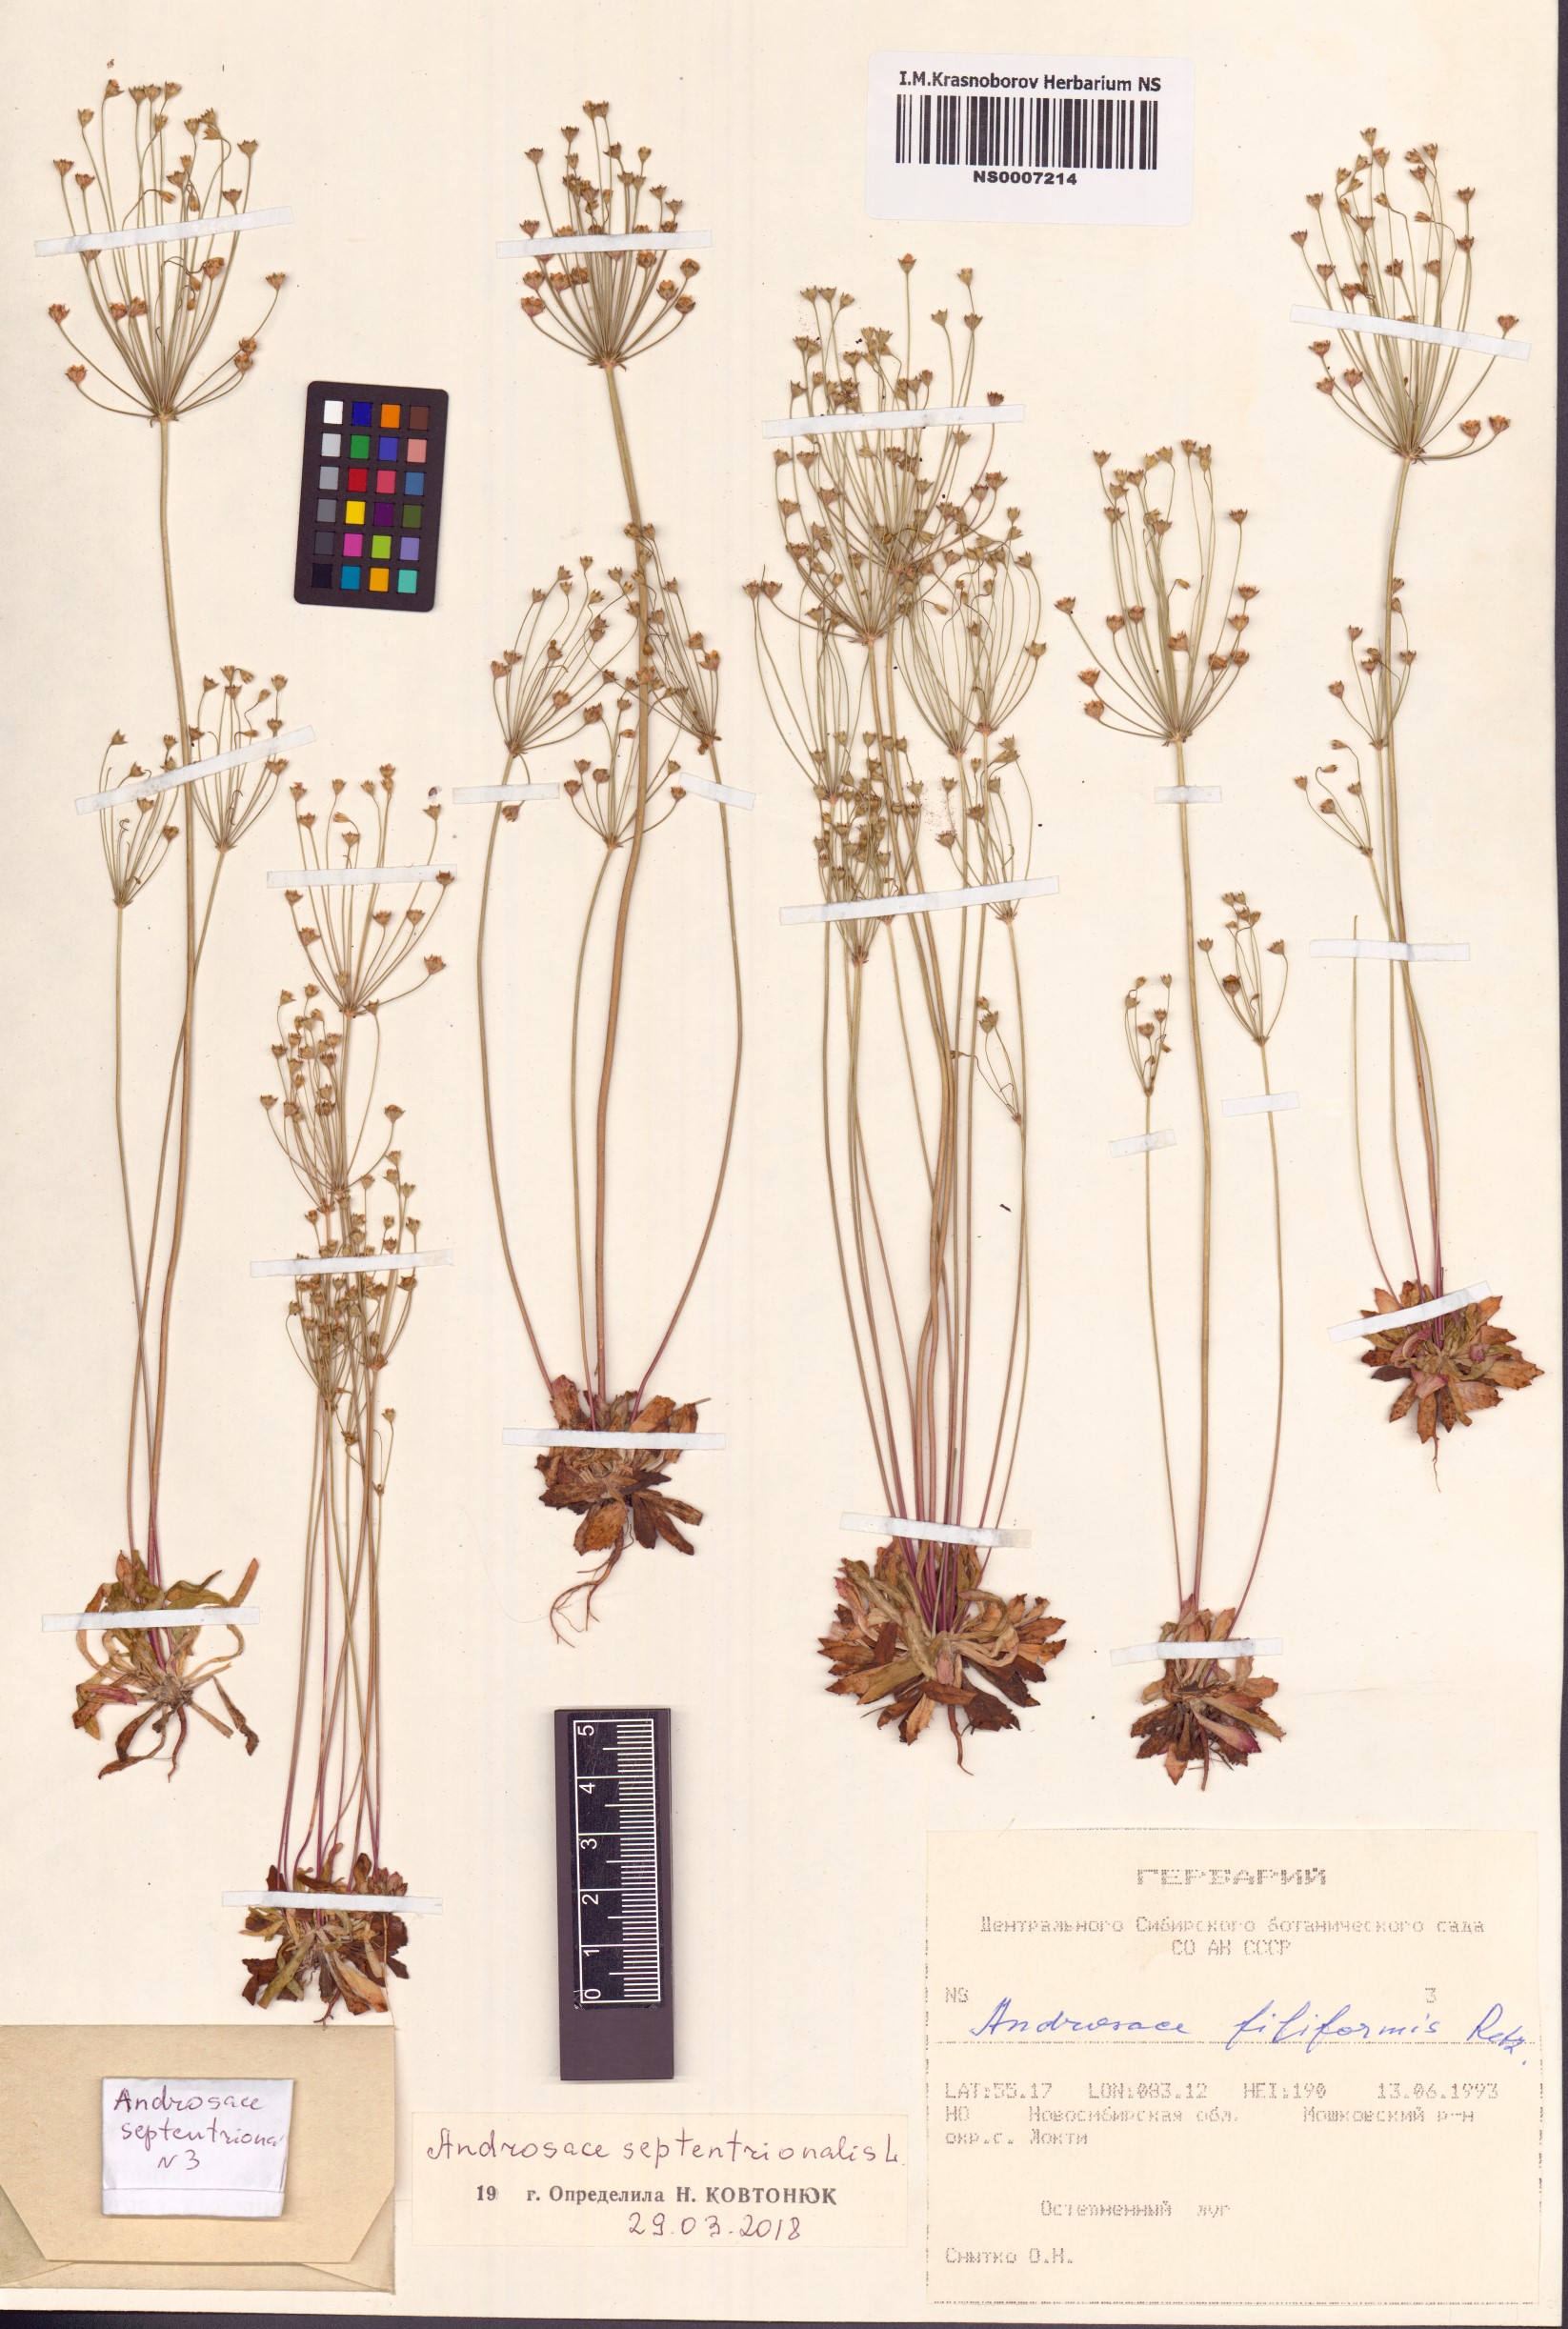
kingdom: Plantae
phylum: Tracheophyta
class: Magnoliopsida
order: Ericales
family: Primulaceae
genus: Androsace
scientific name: Androsace septentrionalis
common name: Hairy northern fairy-candelabra
